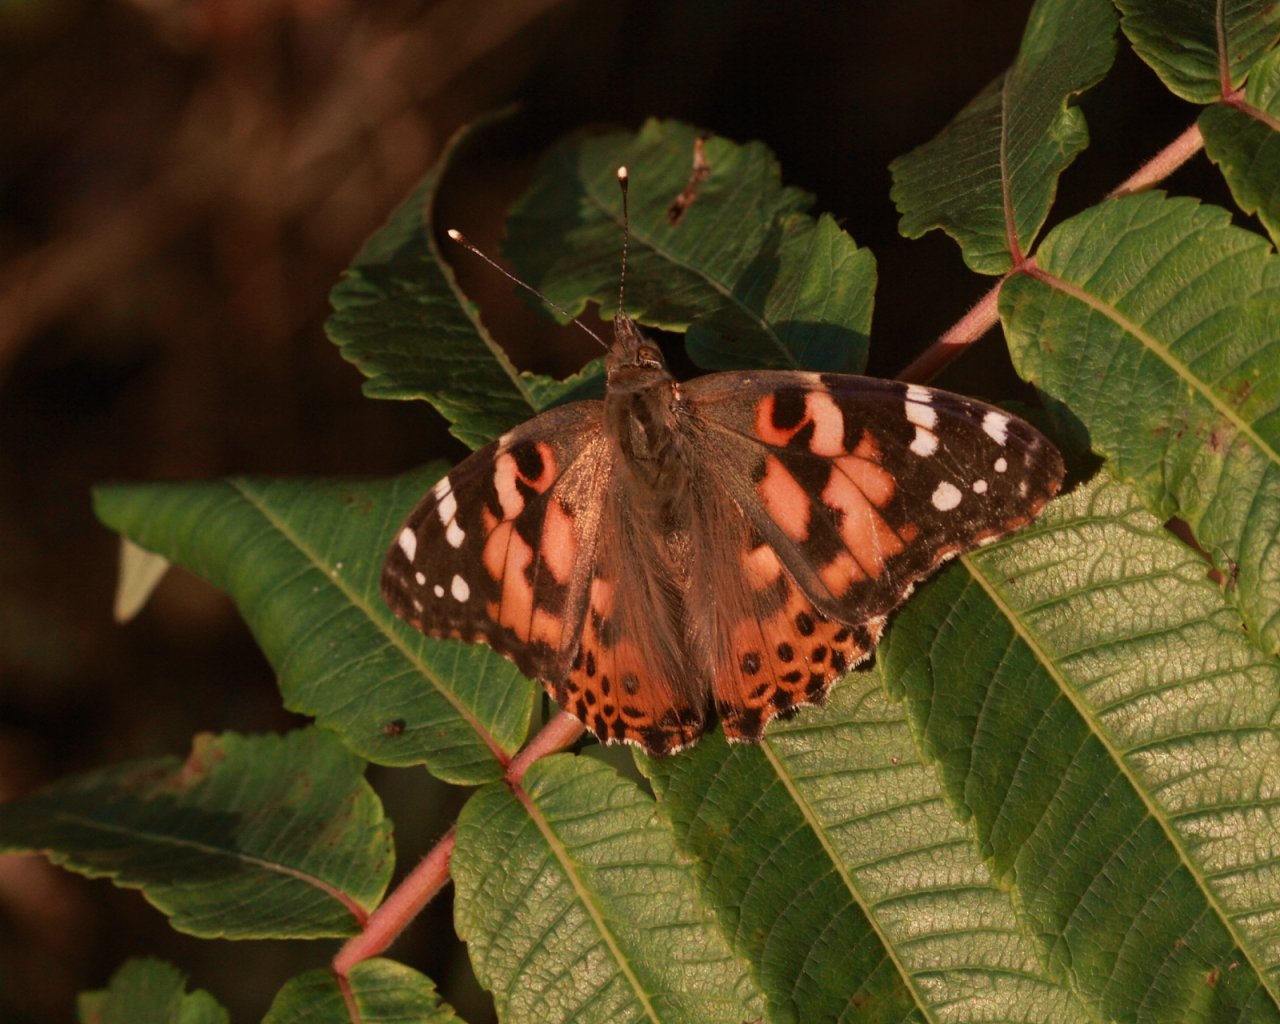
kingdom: Animalia
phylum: Arthropoda
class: Insecta
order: Lepidoptera
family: Nymphalidae
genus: Vanessa
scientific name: Vanessa cardui
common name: Painted Lady
